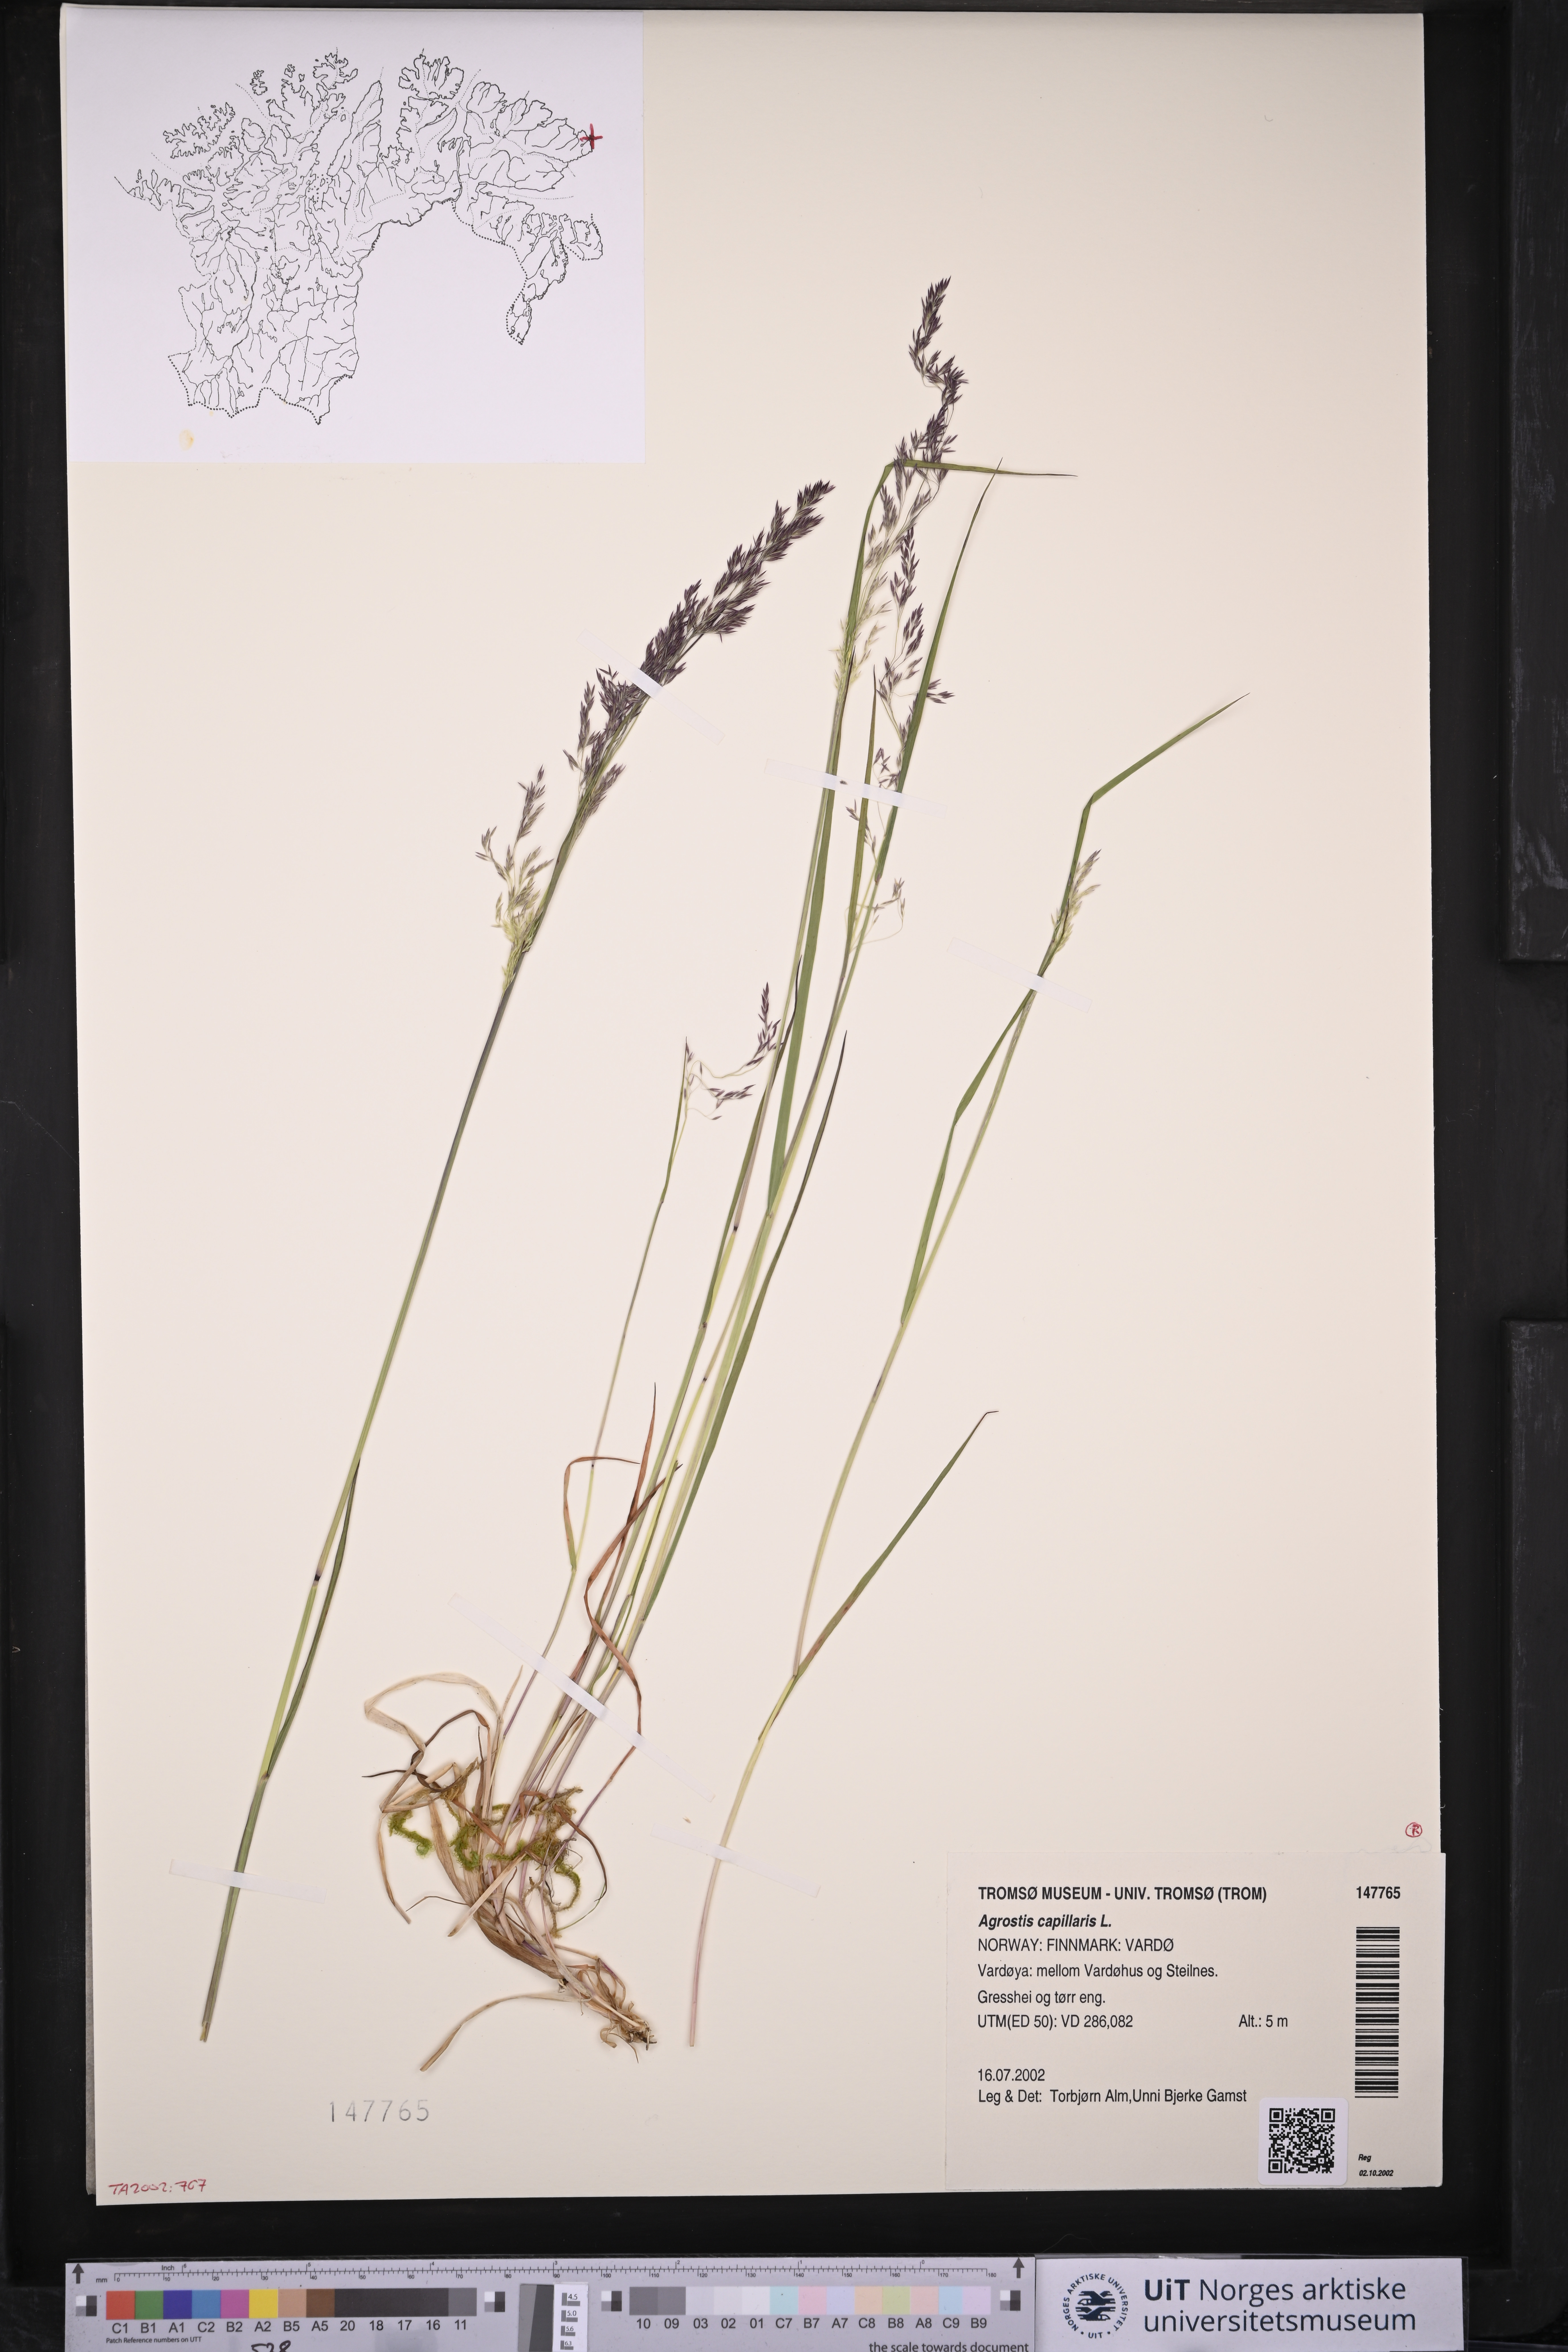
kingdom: Plantae
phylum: Tracheophyta
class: Liliopsida
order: Poales
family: Poaceae
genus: Agrostis
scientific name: Agrostis capillaris
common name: Colonial bentgrass
